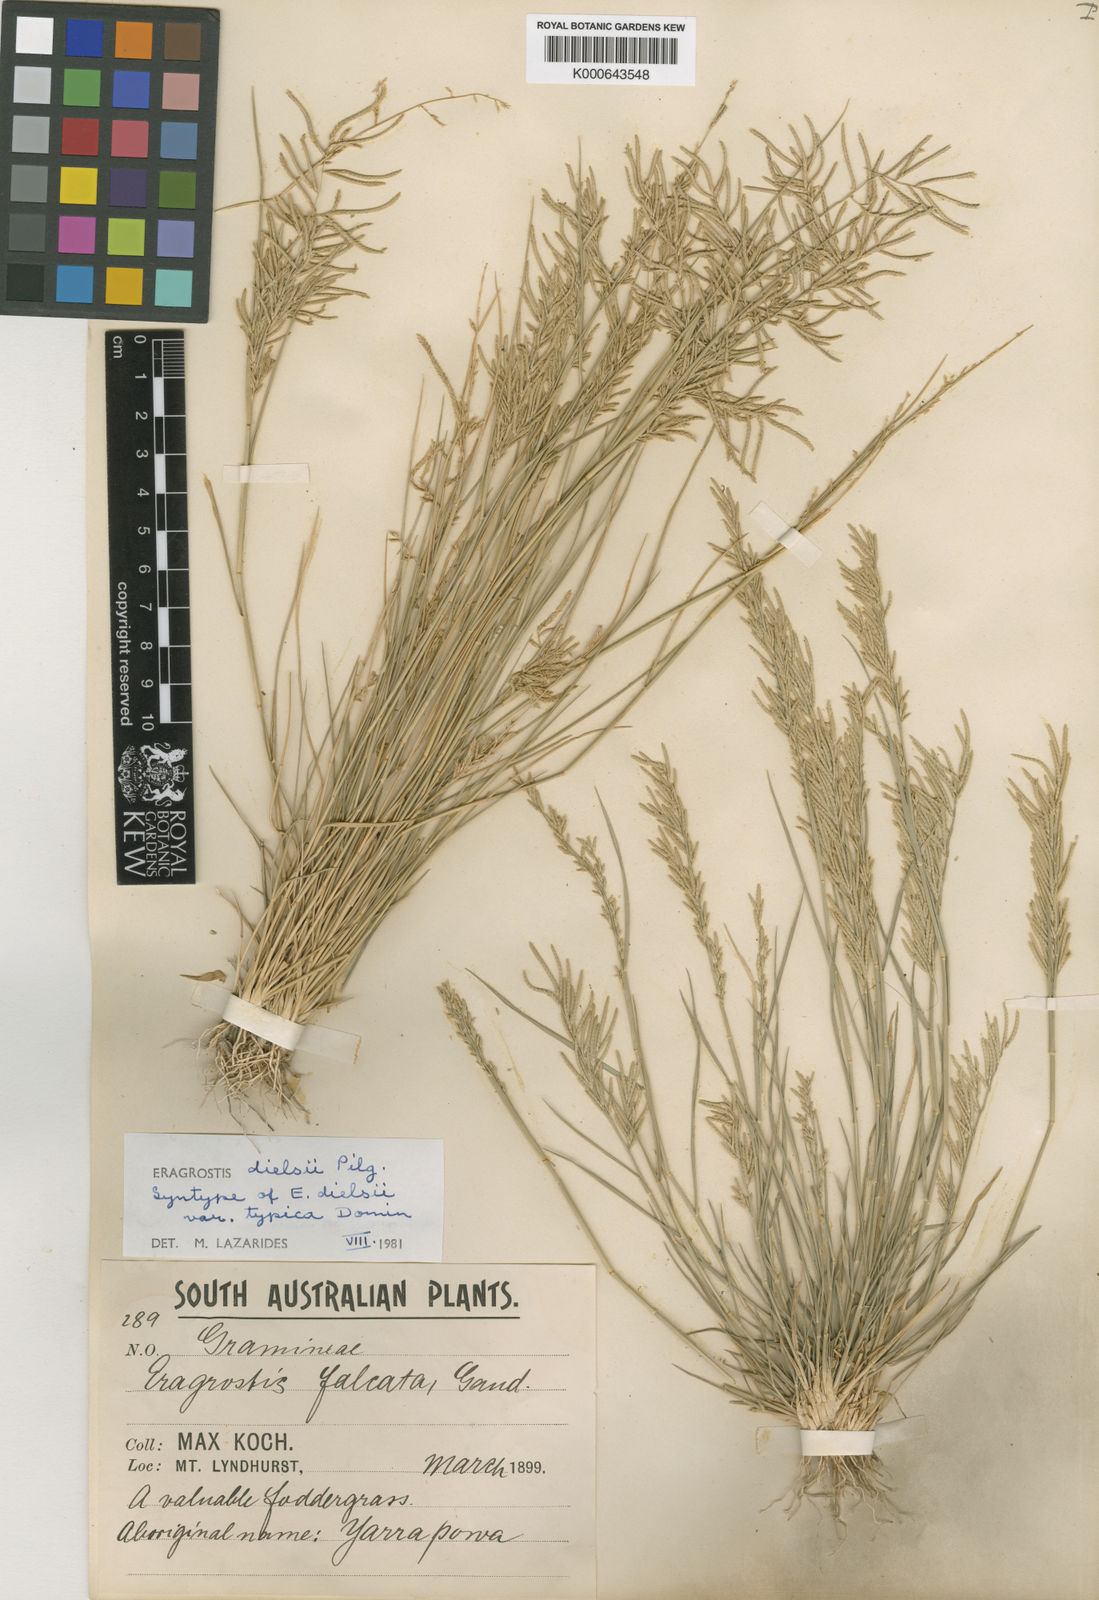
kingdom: Plantae
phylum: Tracheophyta
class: Liliopsida
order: Poales
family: Poaceae
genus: Eragrostis
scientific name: Eragrostis
